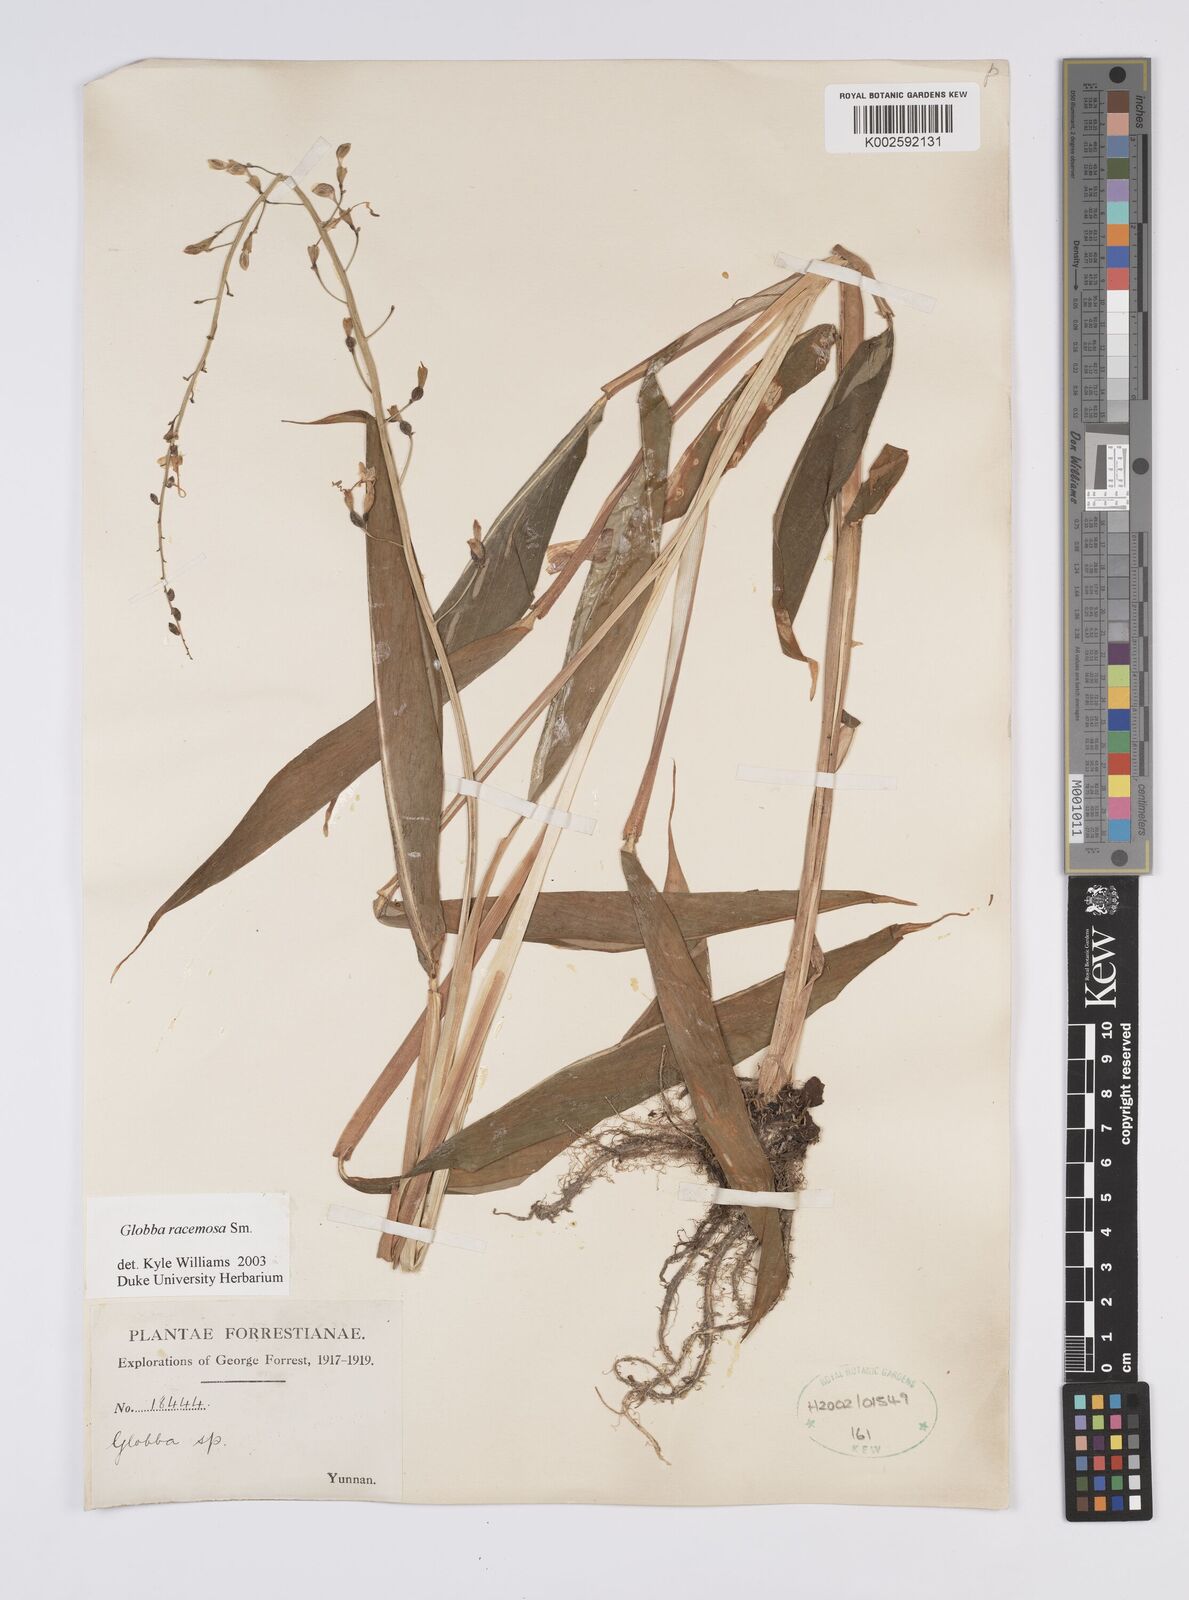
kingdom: Plantae
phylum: Tracheophyta
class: Liliopsida
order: Zingiberales
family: Zingiberaceae
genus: Globba
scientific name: Globba racemosa
